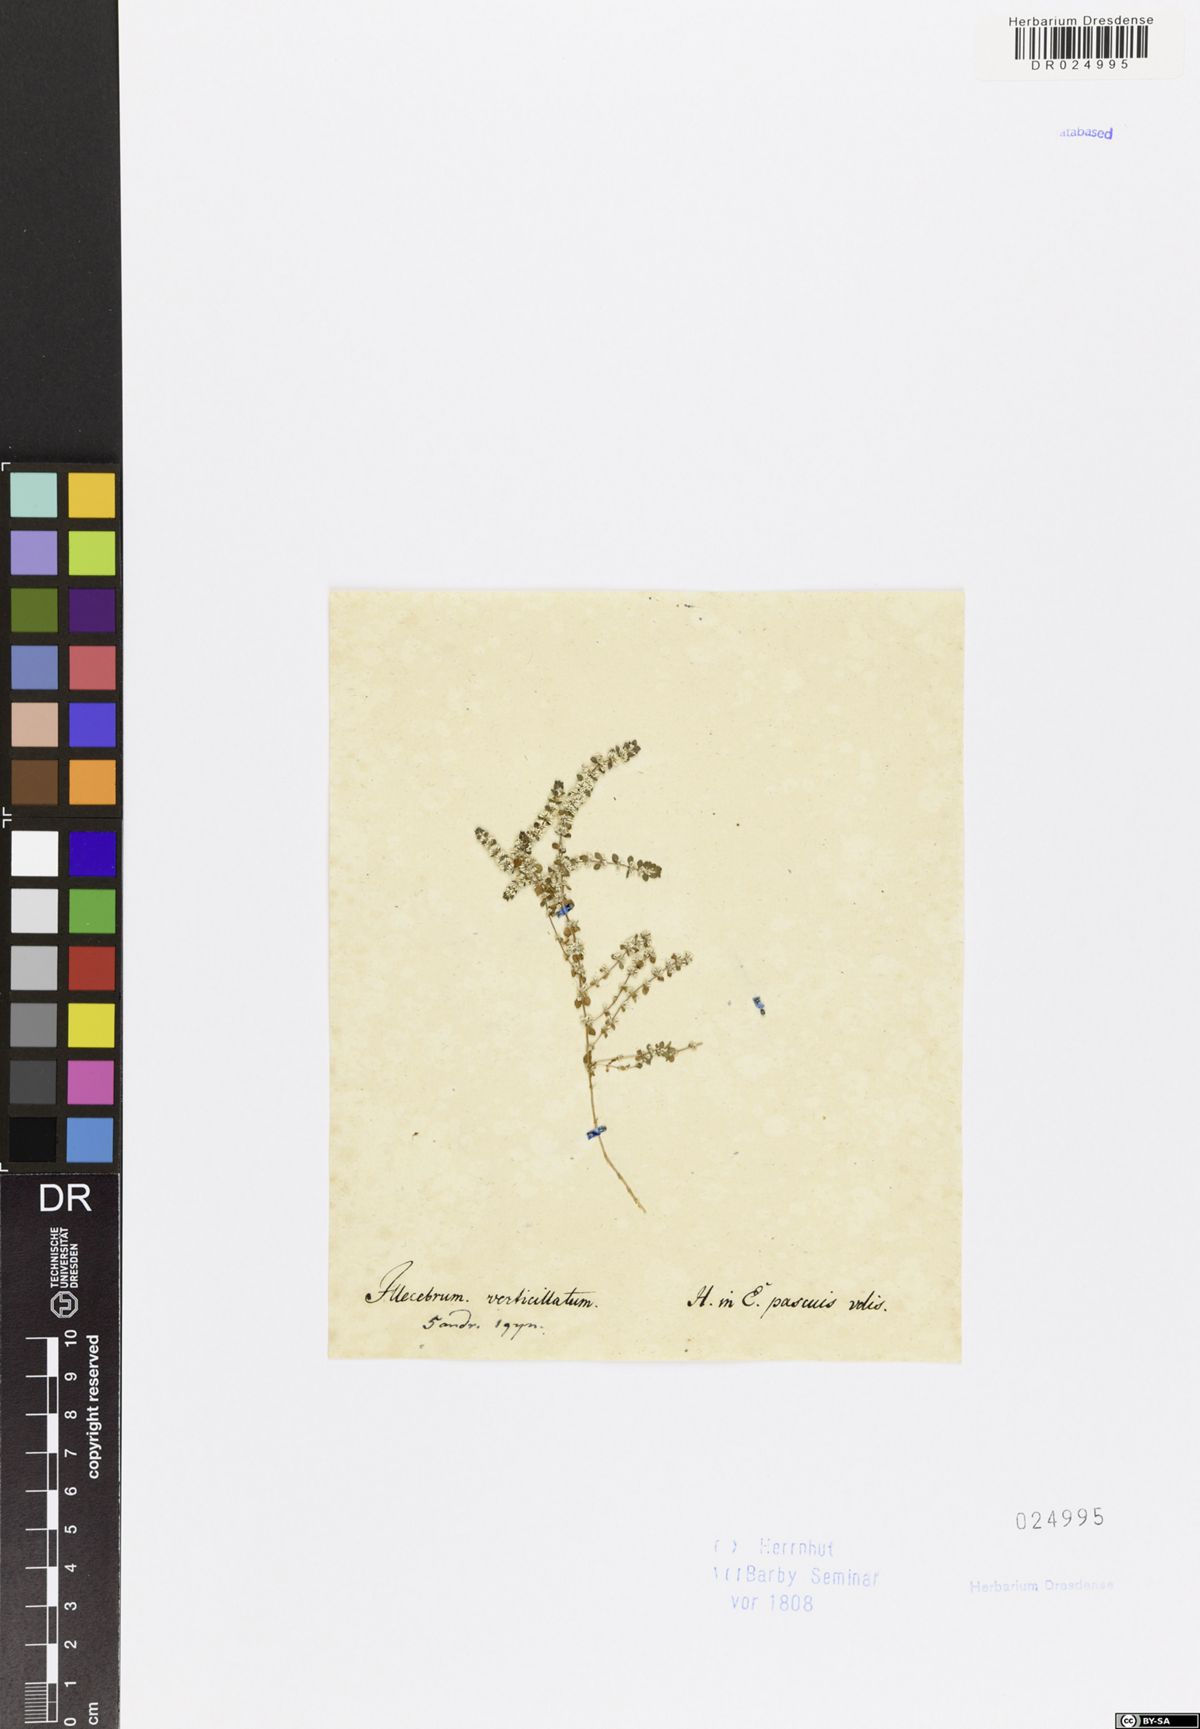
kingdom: Plantae
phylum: Tracheophyta
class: Magnoliopsida
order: Caryophyllales
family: Caryophyllaceae
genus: Illecebrum
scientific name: Illecebrum verticillatum
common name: Coral necklace
